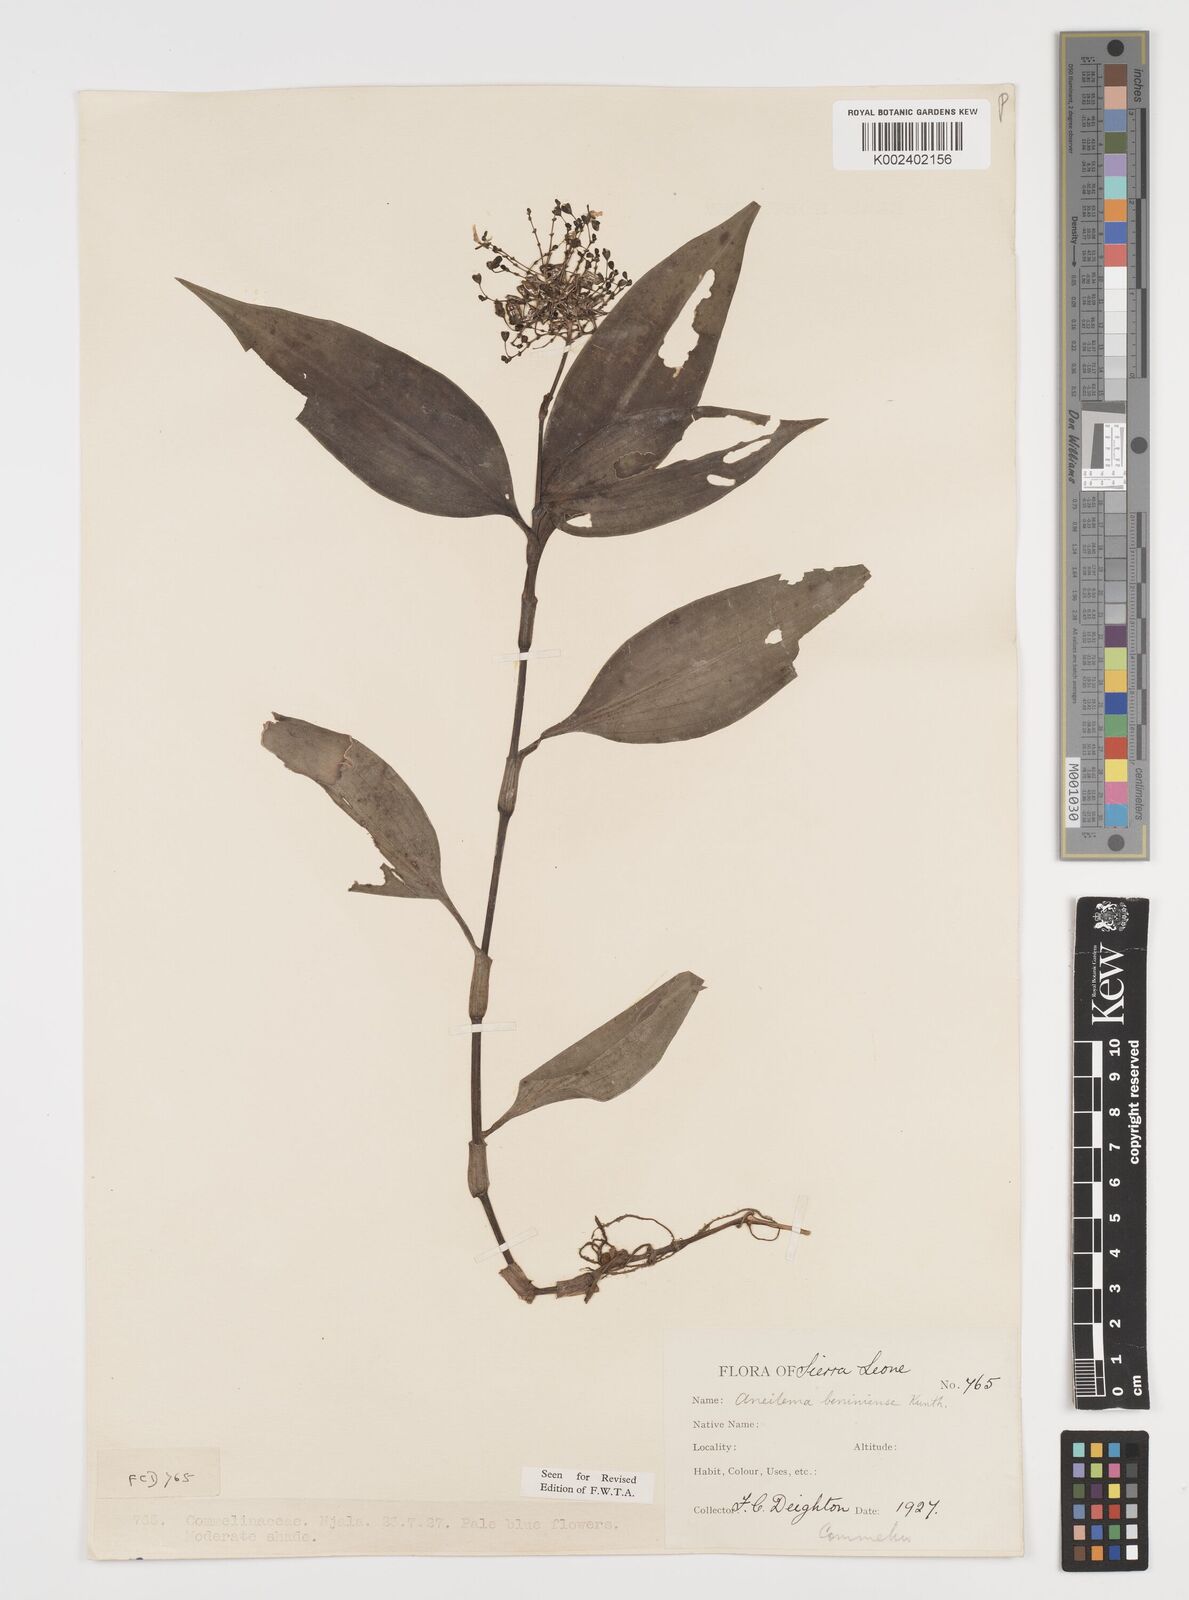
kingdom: Plantae
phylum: Tracheophyta
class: Liliopsida
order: Commelinales
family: Commelinaceae
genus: Aneilema
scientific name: Aneilema beniniense
